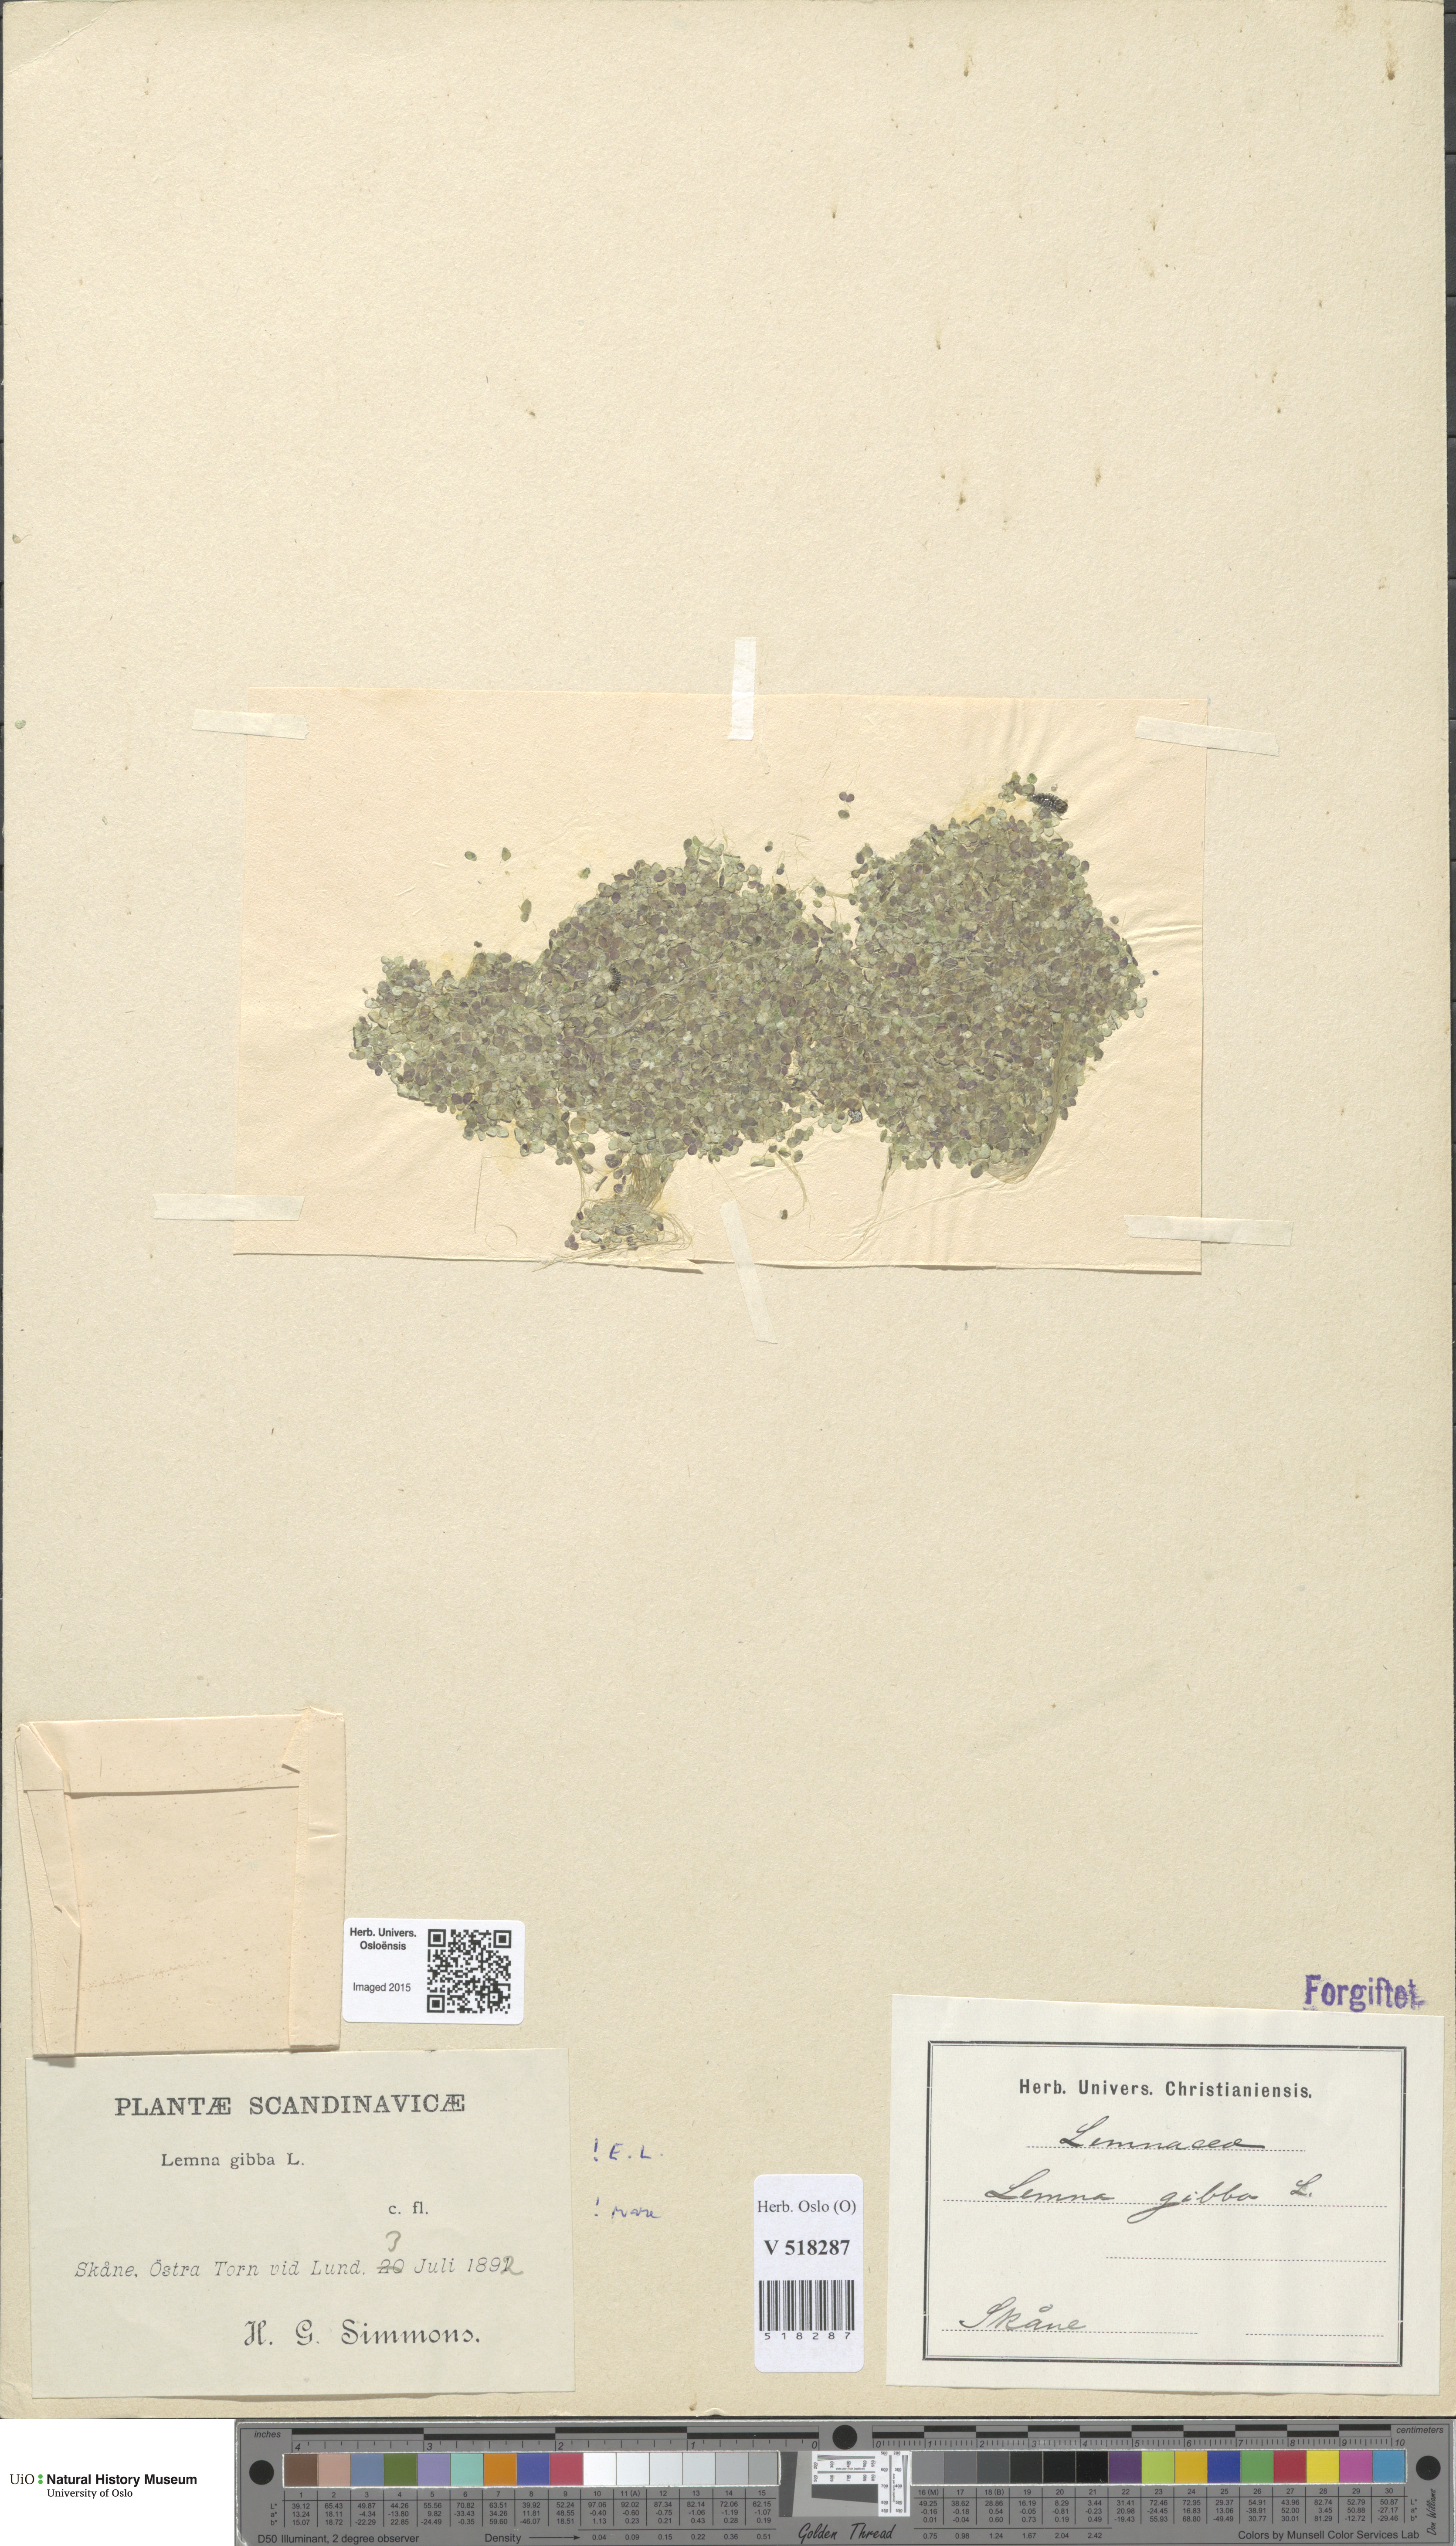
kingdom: Plantae
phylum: Tracheophyta
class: Liliopsida
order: Alismatales
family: Araceae
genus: Lemna
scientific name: Lemna gibba
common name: Fat duckweed
